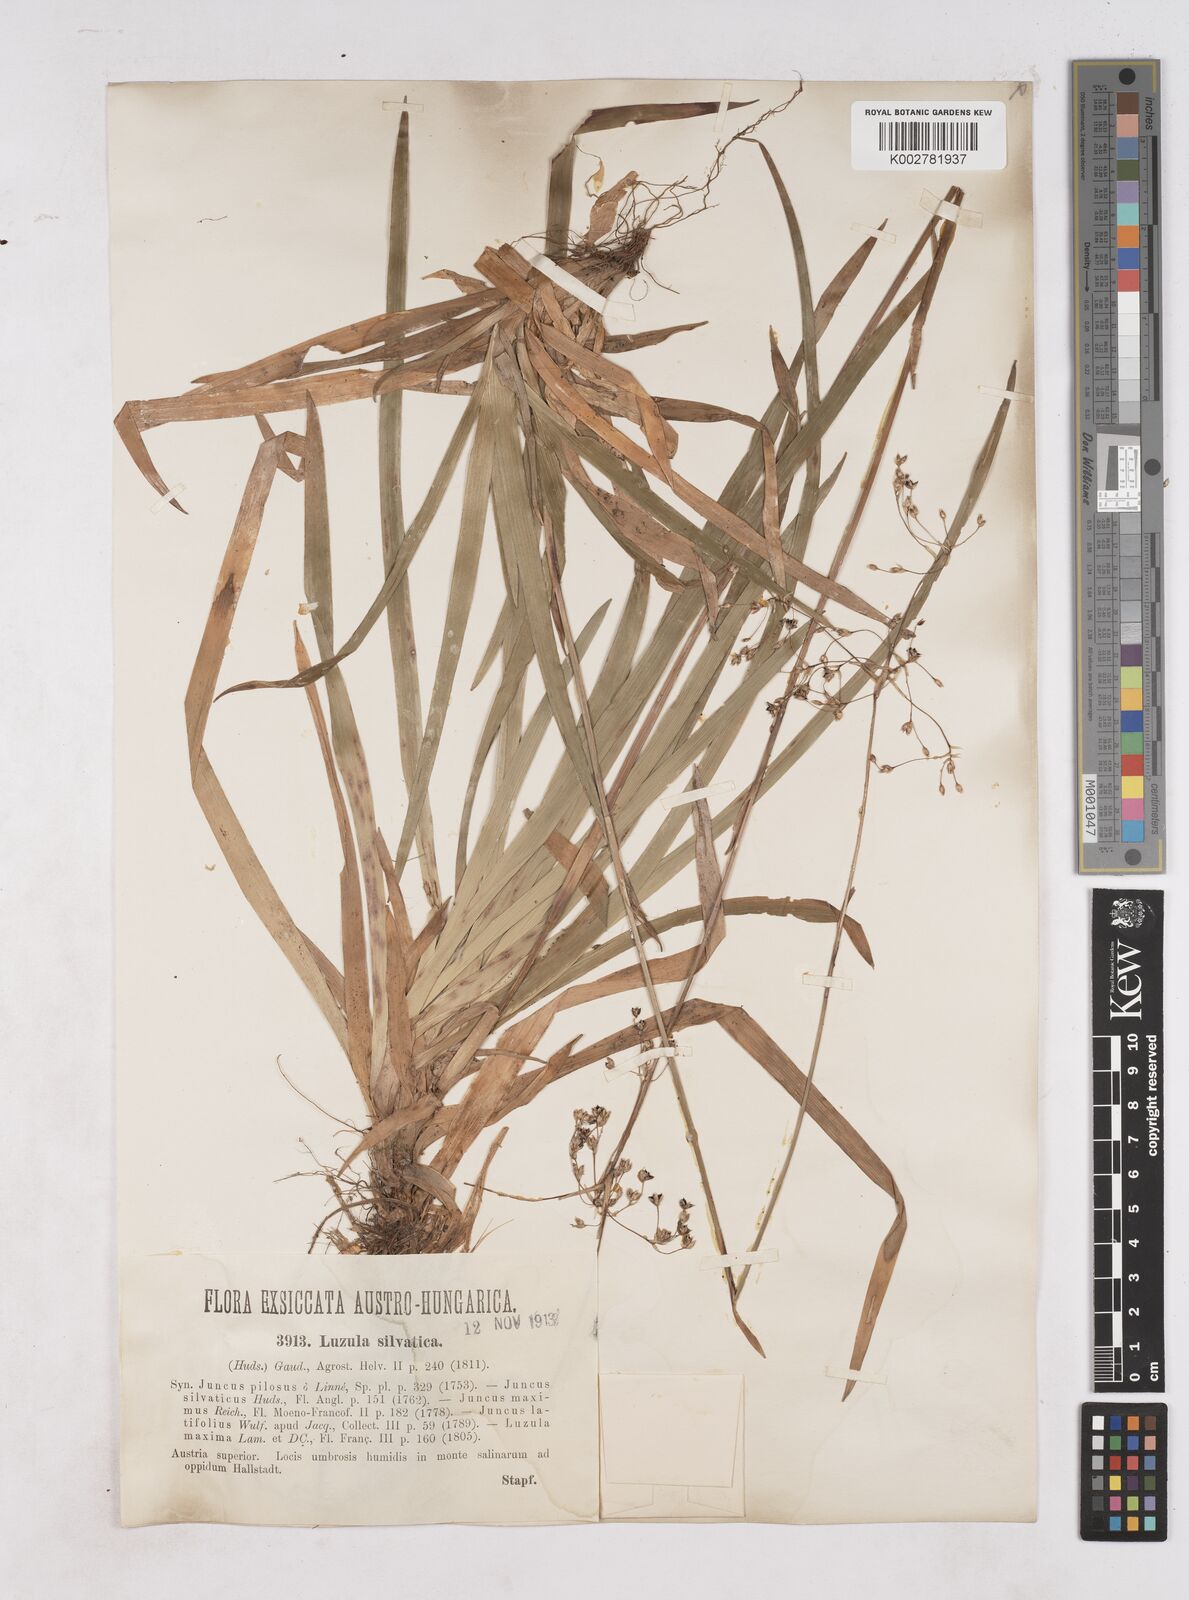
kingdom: Plantae
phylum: Tracheophyta
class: Liliopsida
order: Poales
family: Juncaceae
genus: Luzula
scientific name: Luzula sylvatica
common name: Great wood-rush
